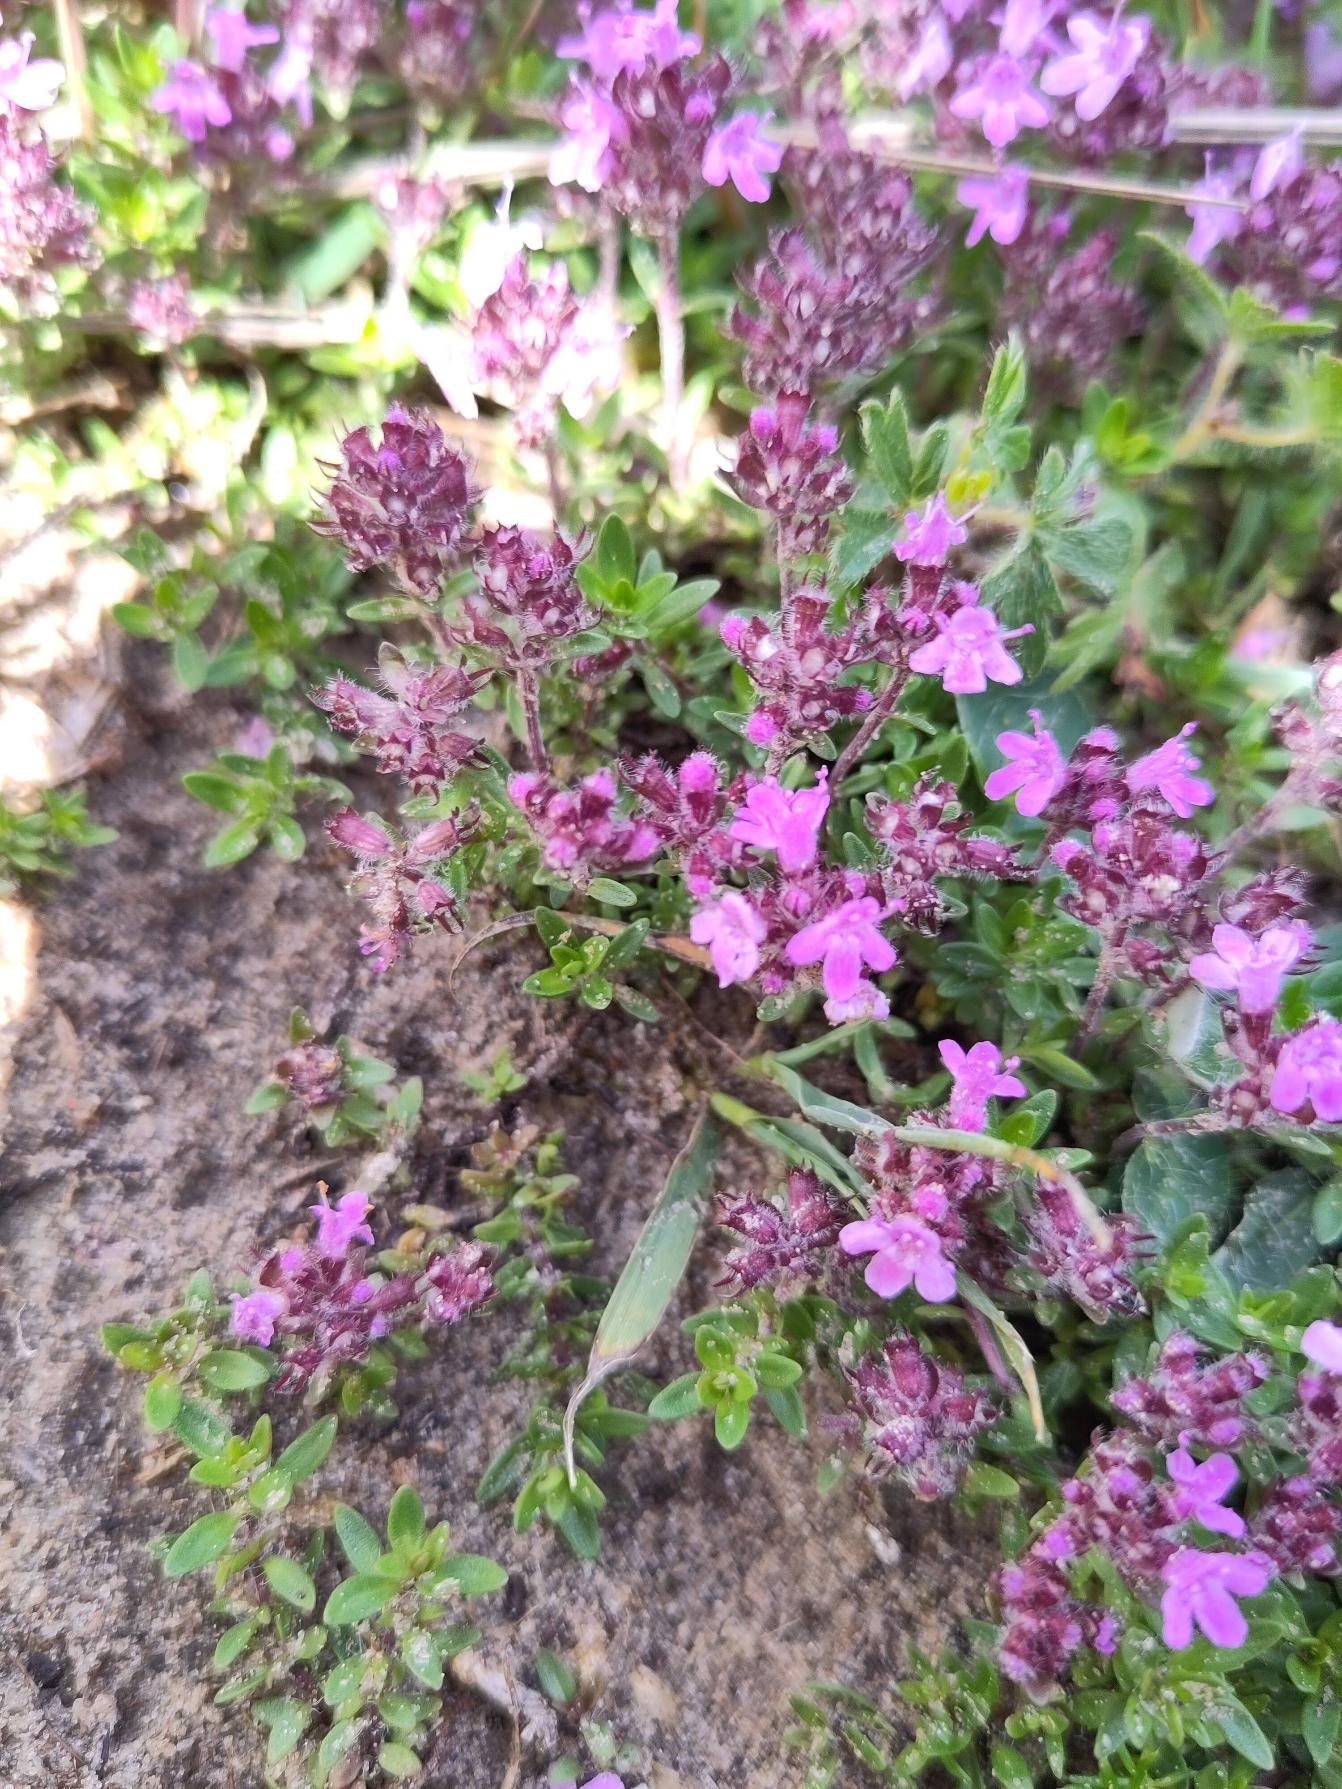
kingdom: Plantae
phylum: Tracheophyta
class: Magnoliopsida
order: Lamiales
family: Lamiaceae
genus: Thymus
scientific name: Thymus serpyllum
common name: Smalbladet timian
